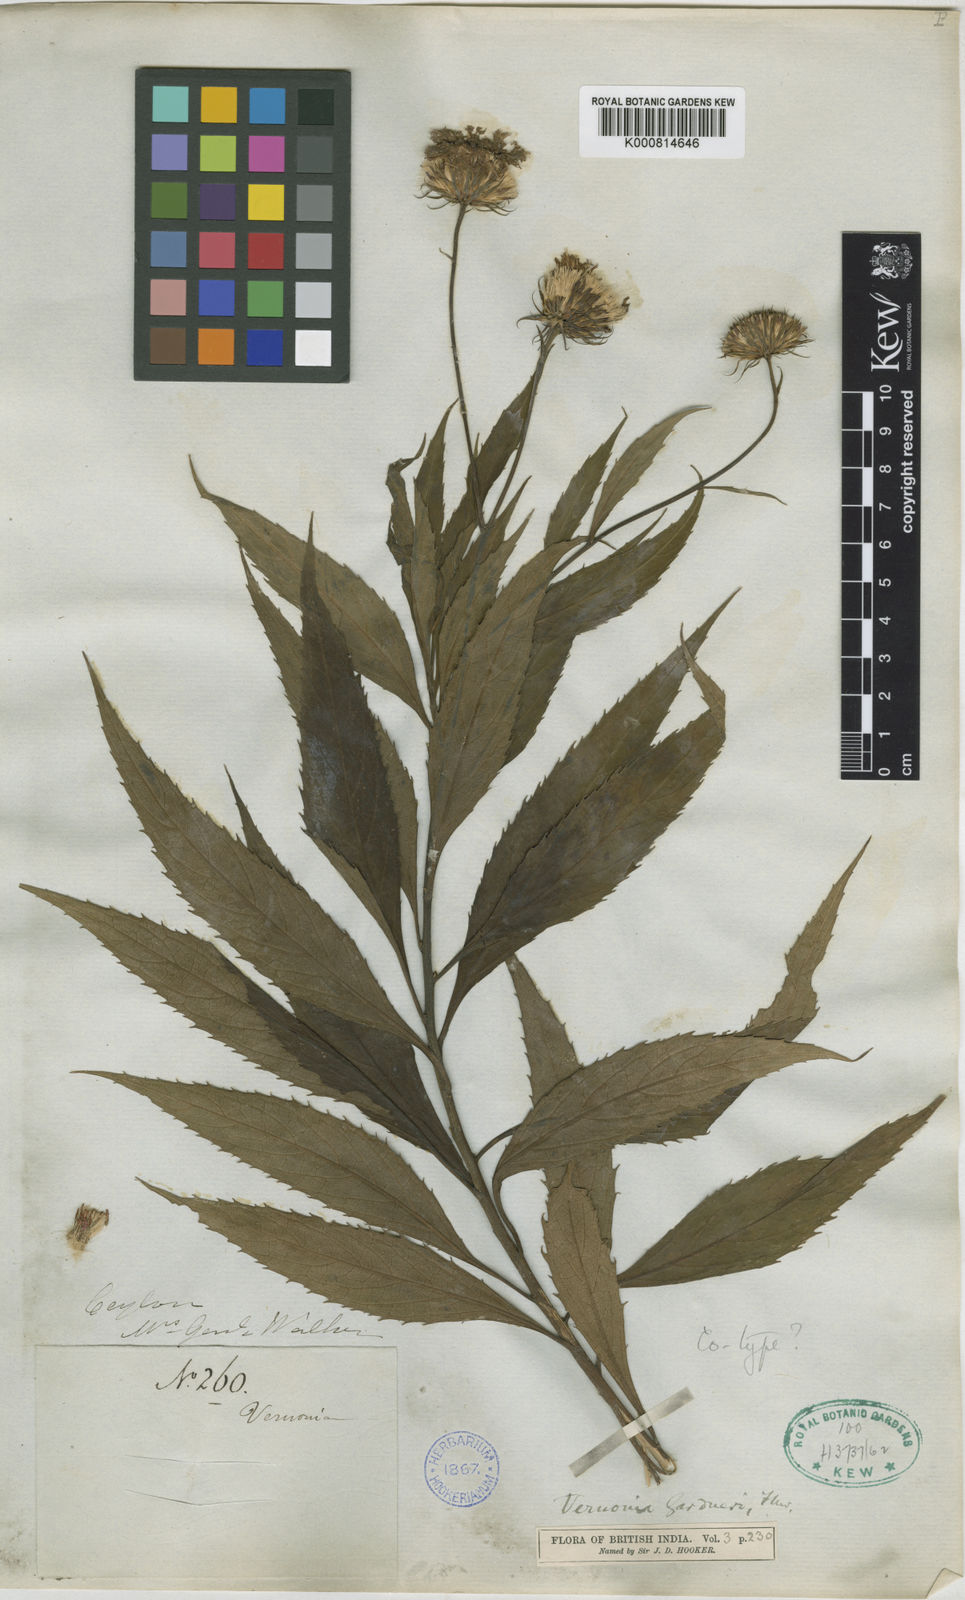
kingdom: Plantae
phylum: Tracheophyta
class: Magnoliopsida
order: Asterales
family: Asteraceae
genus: Acilepis
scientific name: Acilepis gardneri
